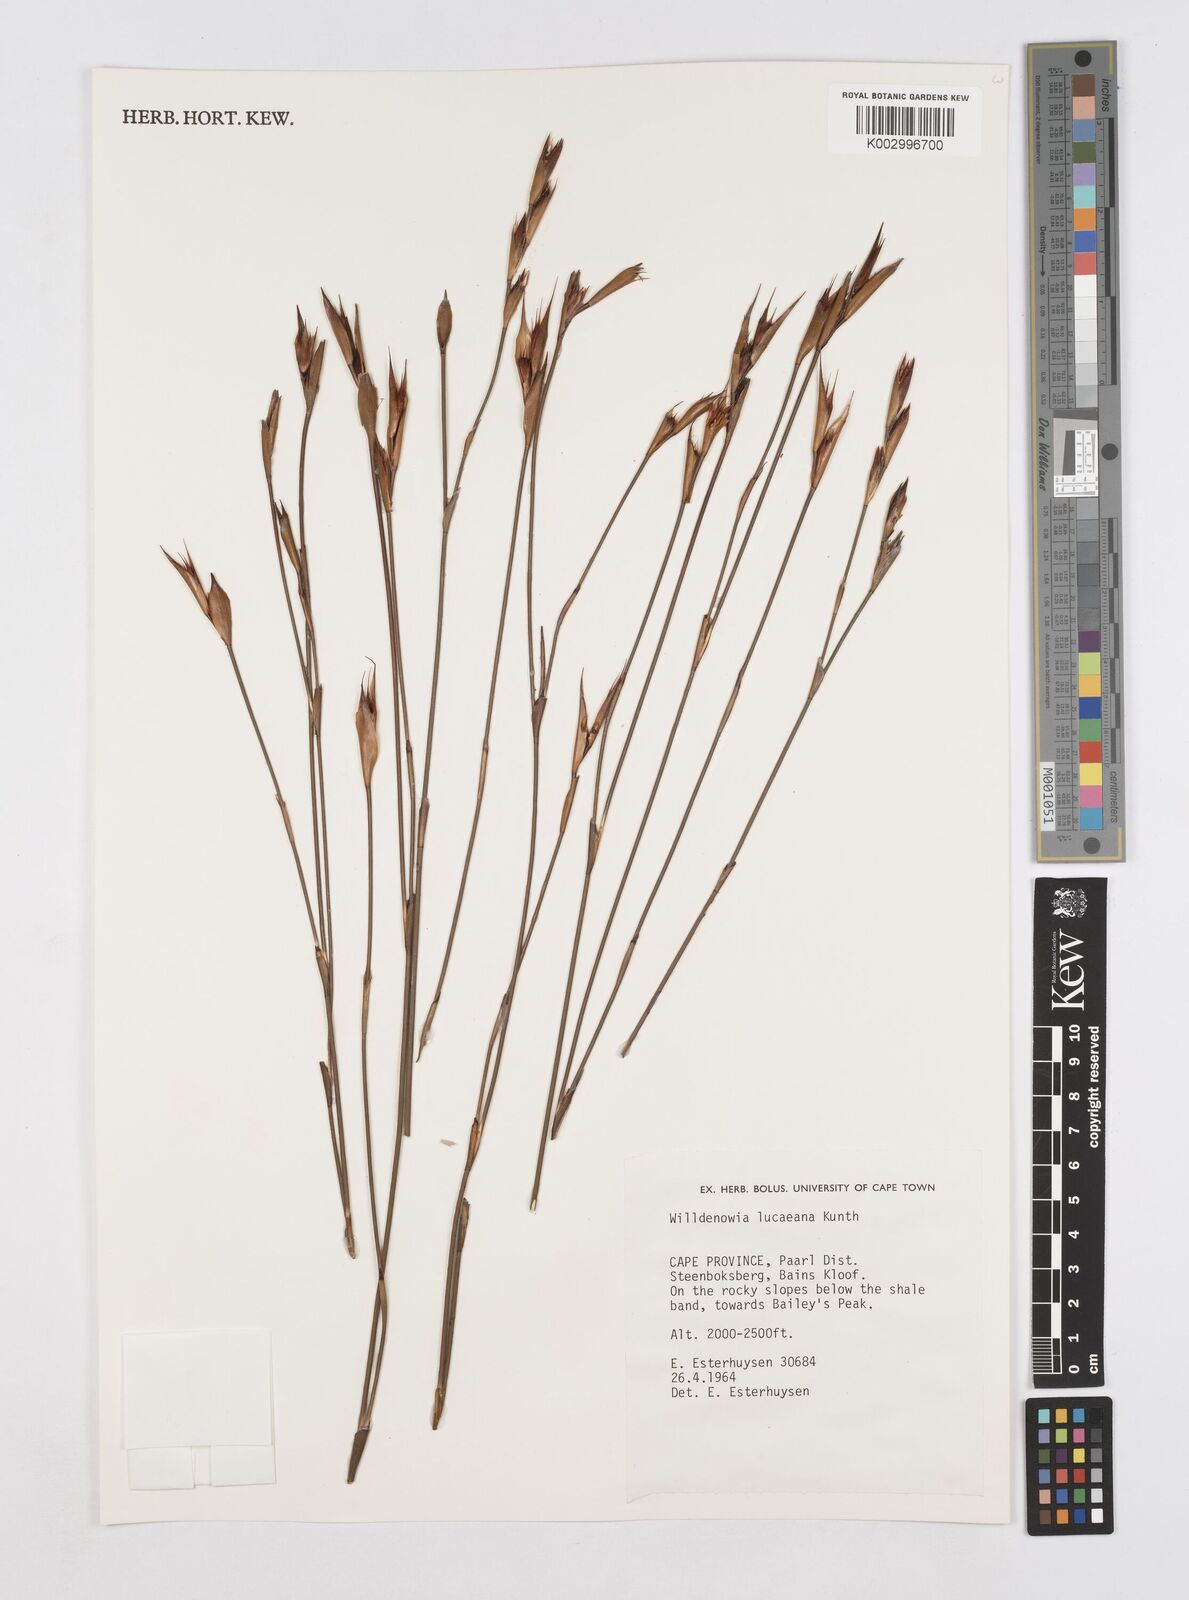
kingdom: Plantae
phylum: Tracheophyta
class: Liliopsida
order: Poales
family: Restionaceae
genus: Willdenowia
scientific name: Willdenowia glomerata
